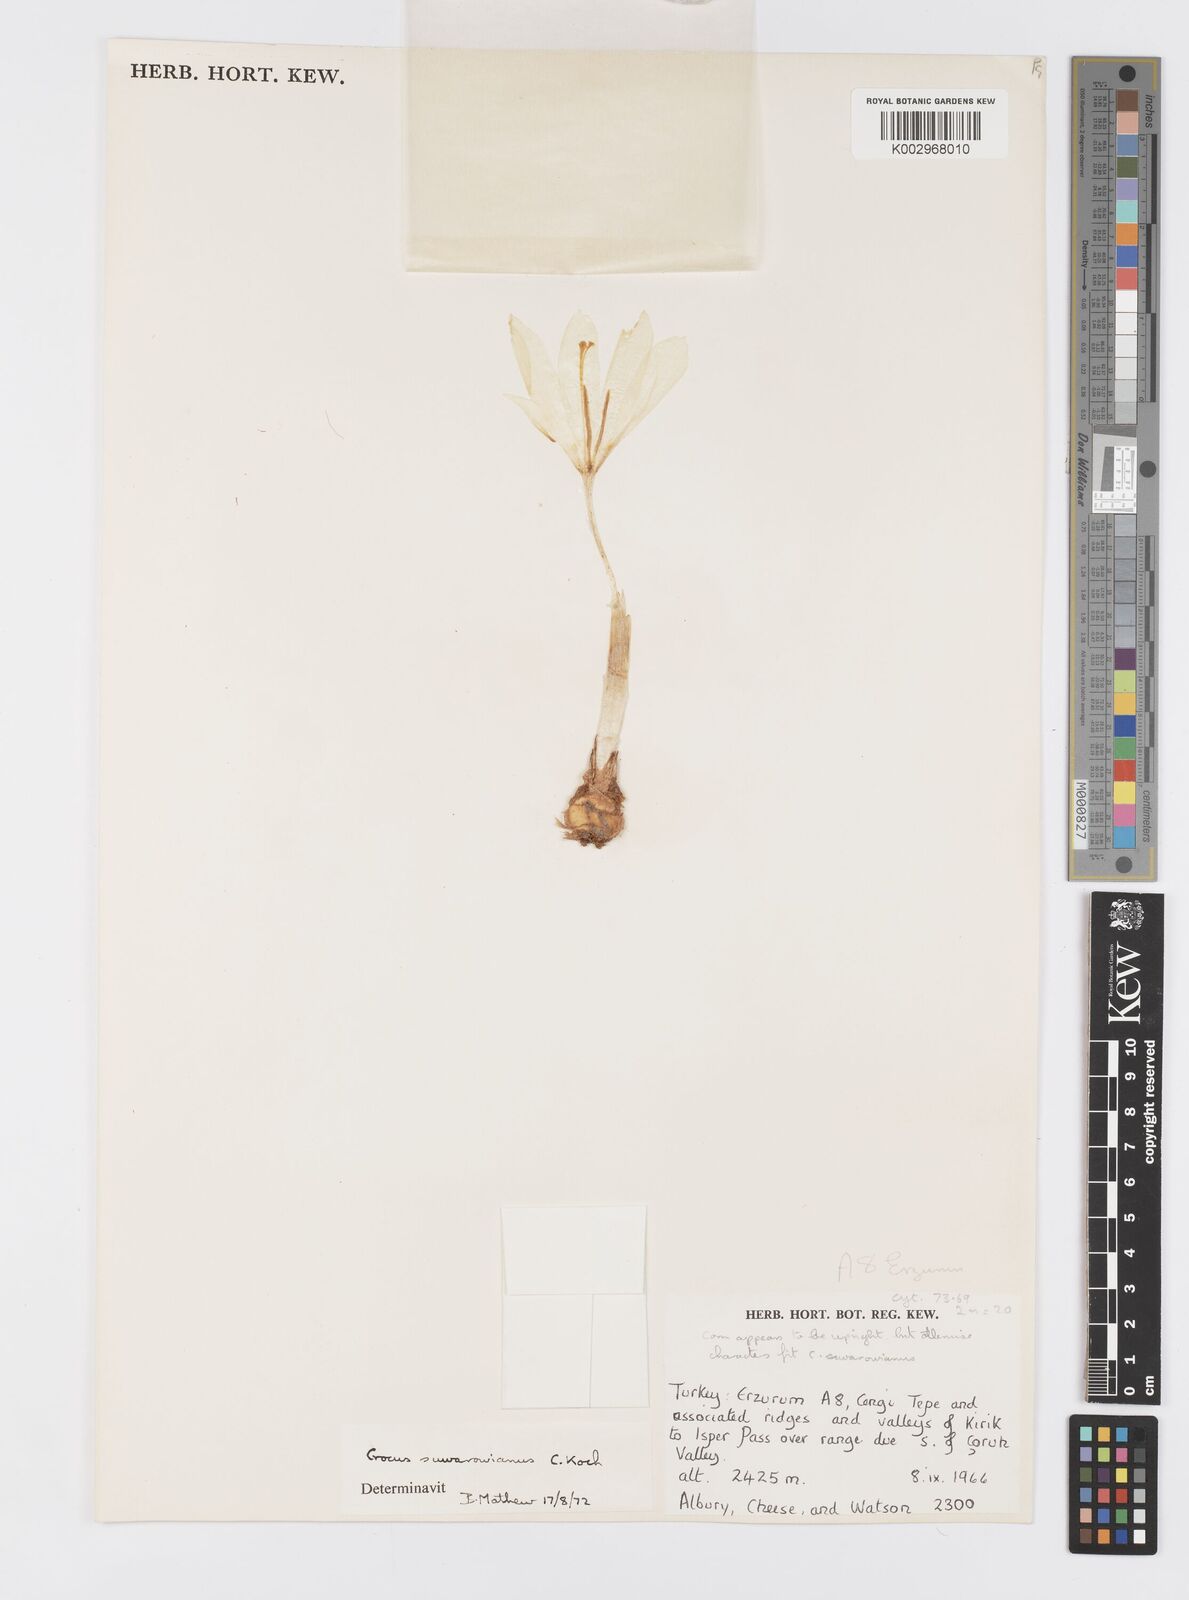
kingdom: Plantae
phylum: Tracheophyta
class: Liliopsida
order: Asparagales
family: Iridaceae
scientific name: Iridaceae
